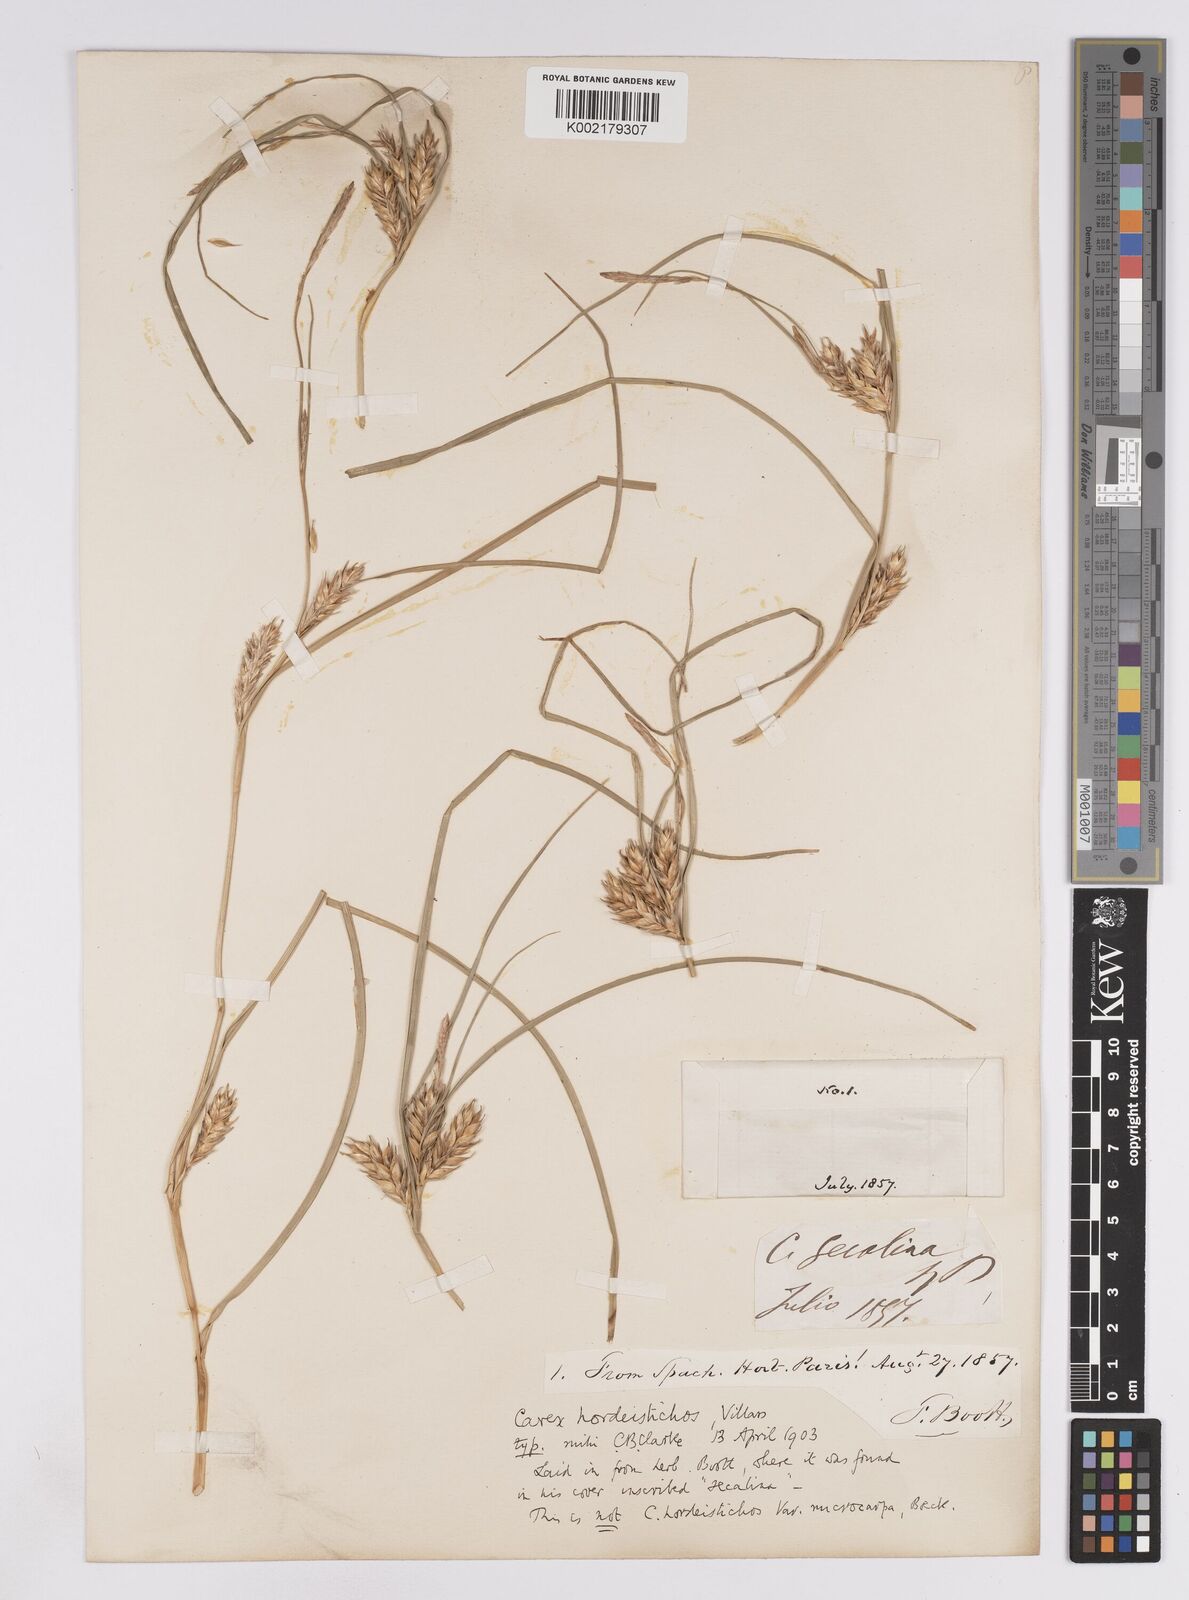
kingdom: Plantae
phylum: Tracheophyta
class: Liliopsida
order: Poales
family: Cyperaceae
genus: Carex
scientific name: Carex hordeistichos
